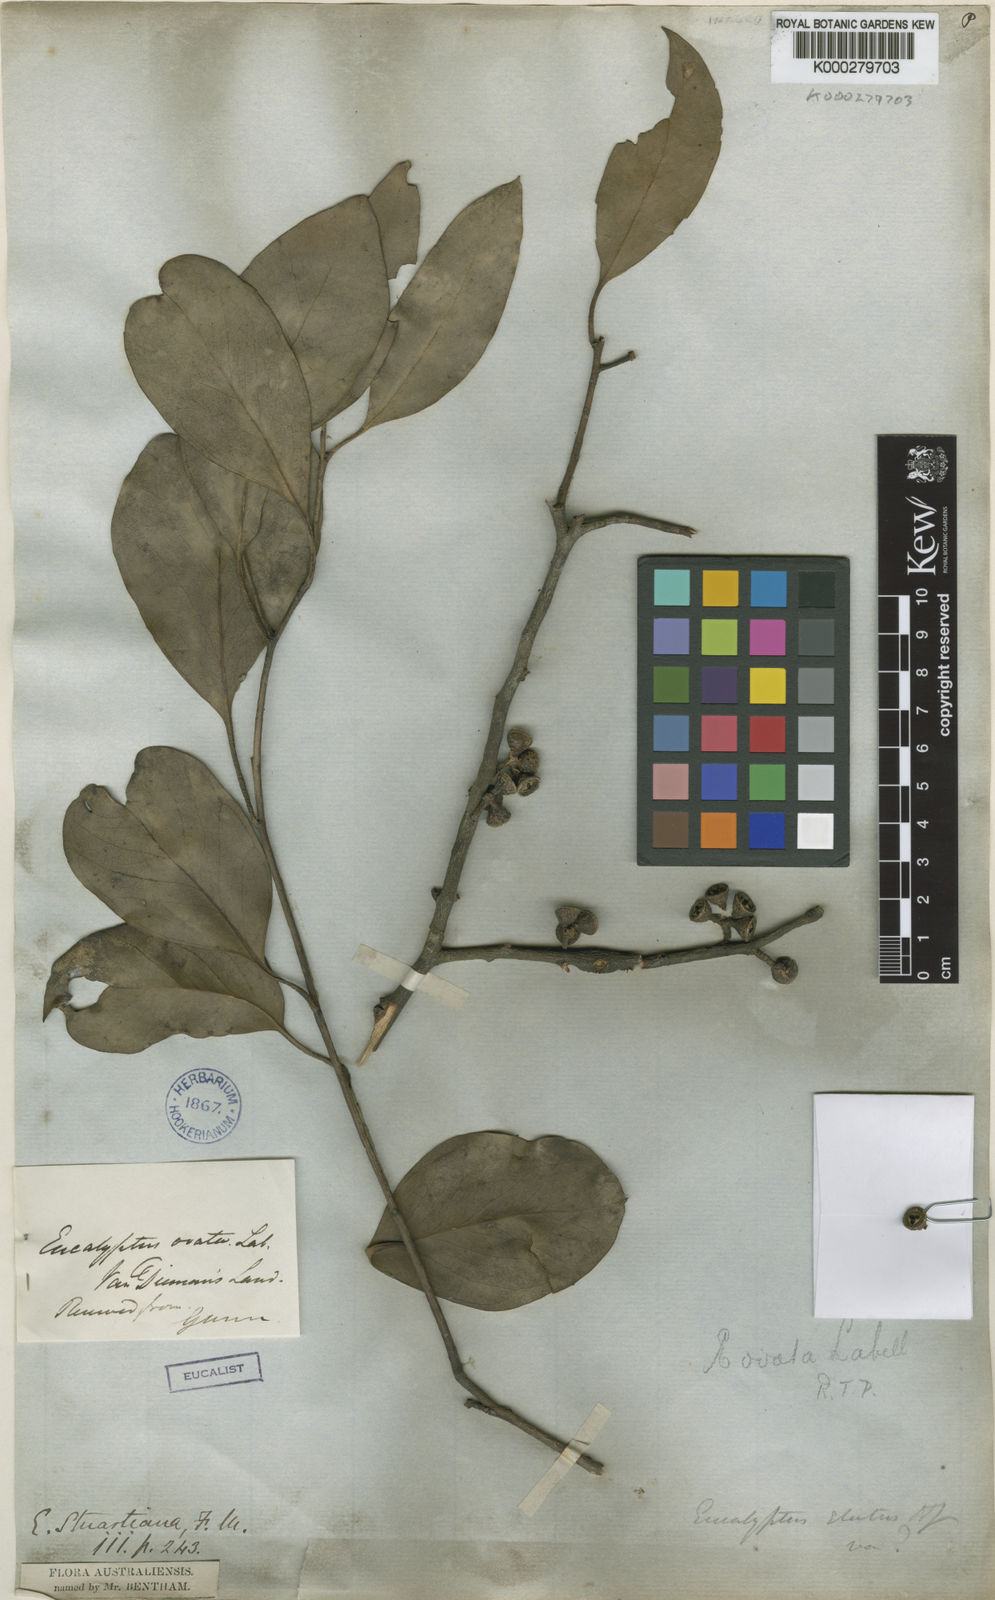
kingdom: Plantae
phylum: Tracheophyta
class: Magnoliopsida
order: Myrtales
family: Myrtaceae
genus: Eucalyptus
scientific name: Eucalyptus ovata
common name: Black-gum
